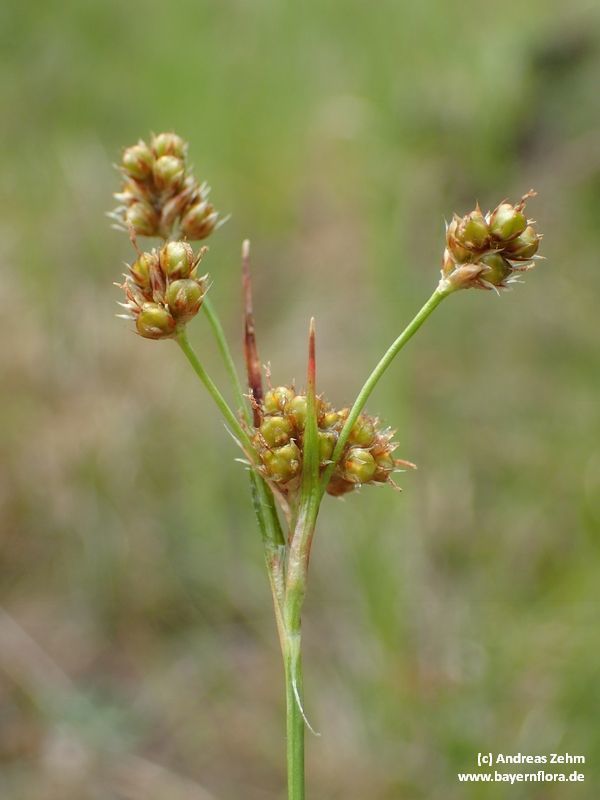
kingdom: Plantae
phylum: Tracheophyta
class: Liliopsida
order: Poales
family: Juncaceae
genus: Luzula
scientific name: Luzula pallescens
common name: Fen wood-rush
